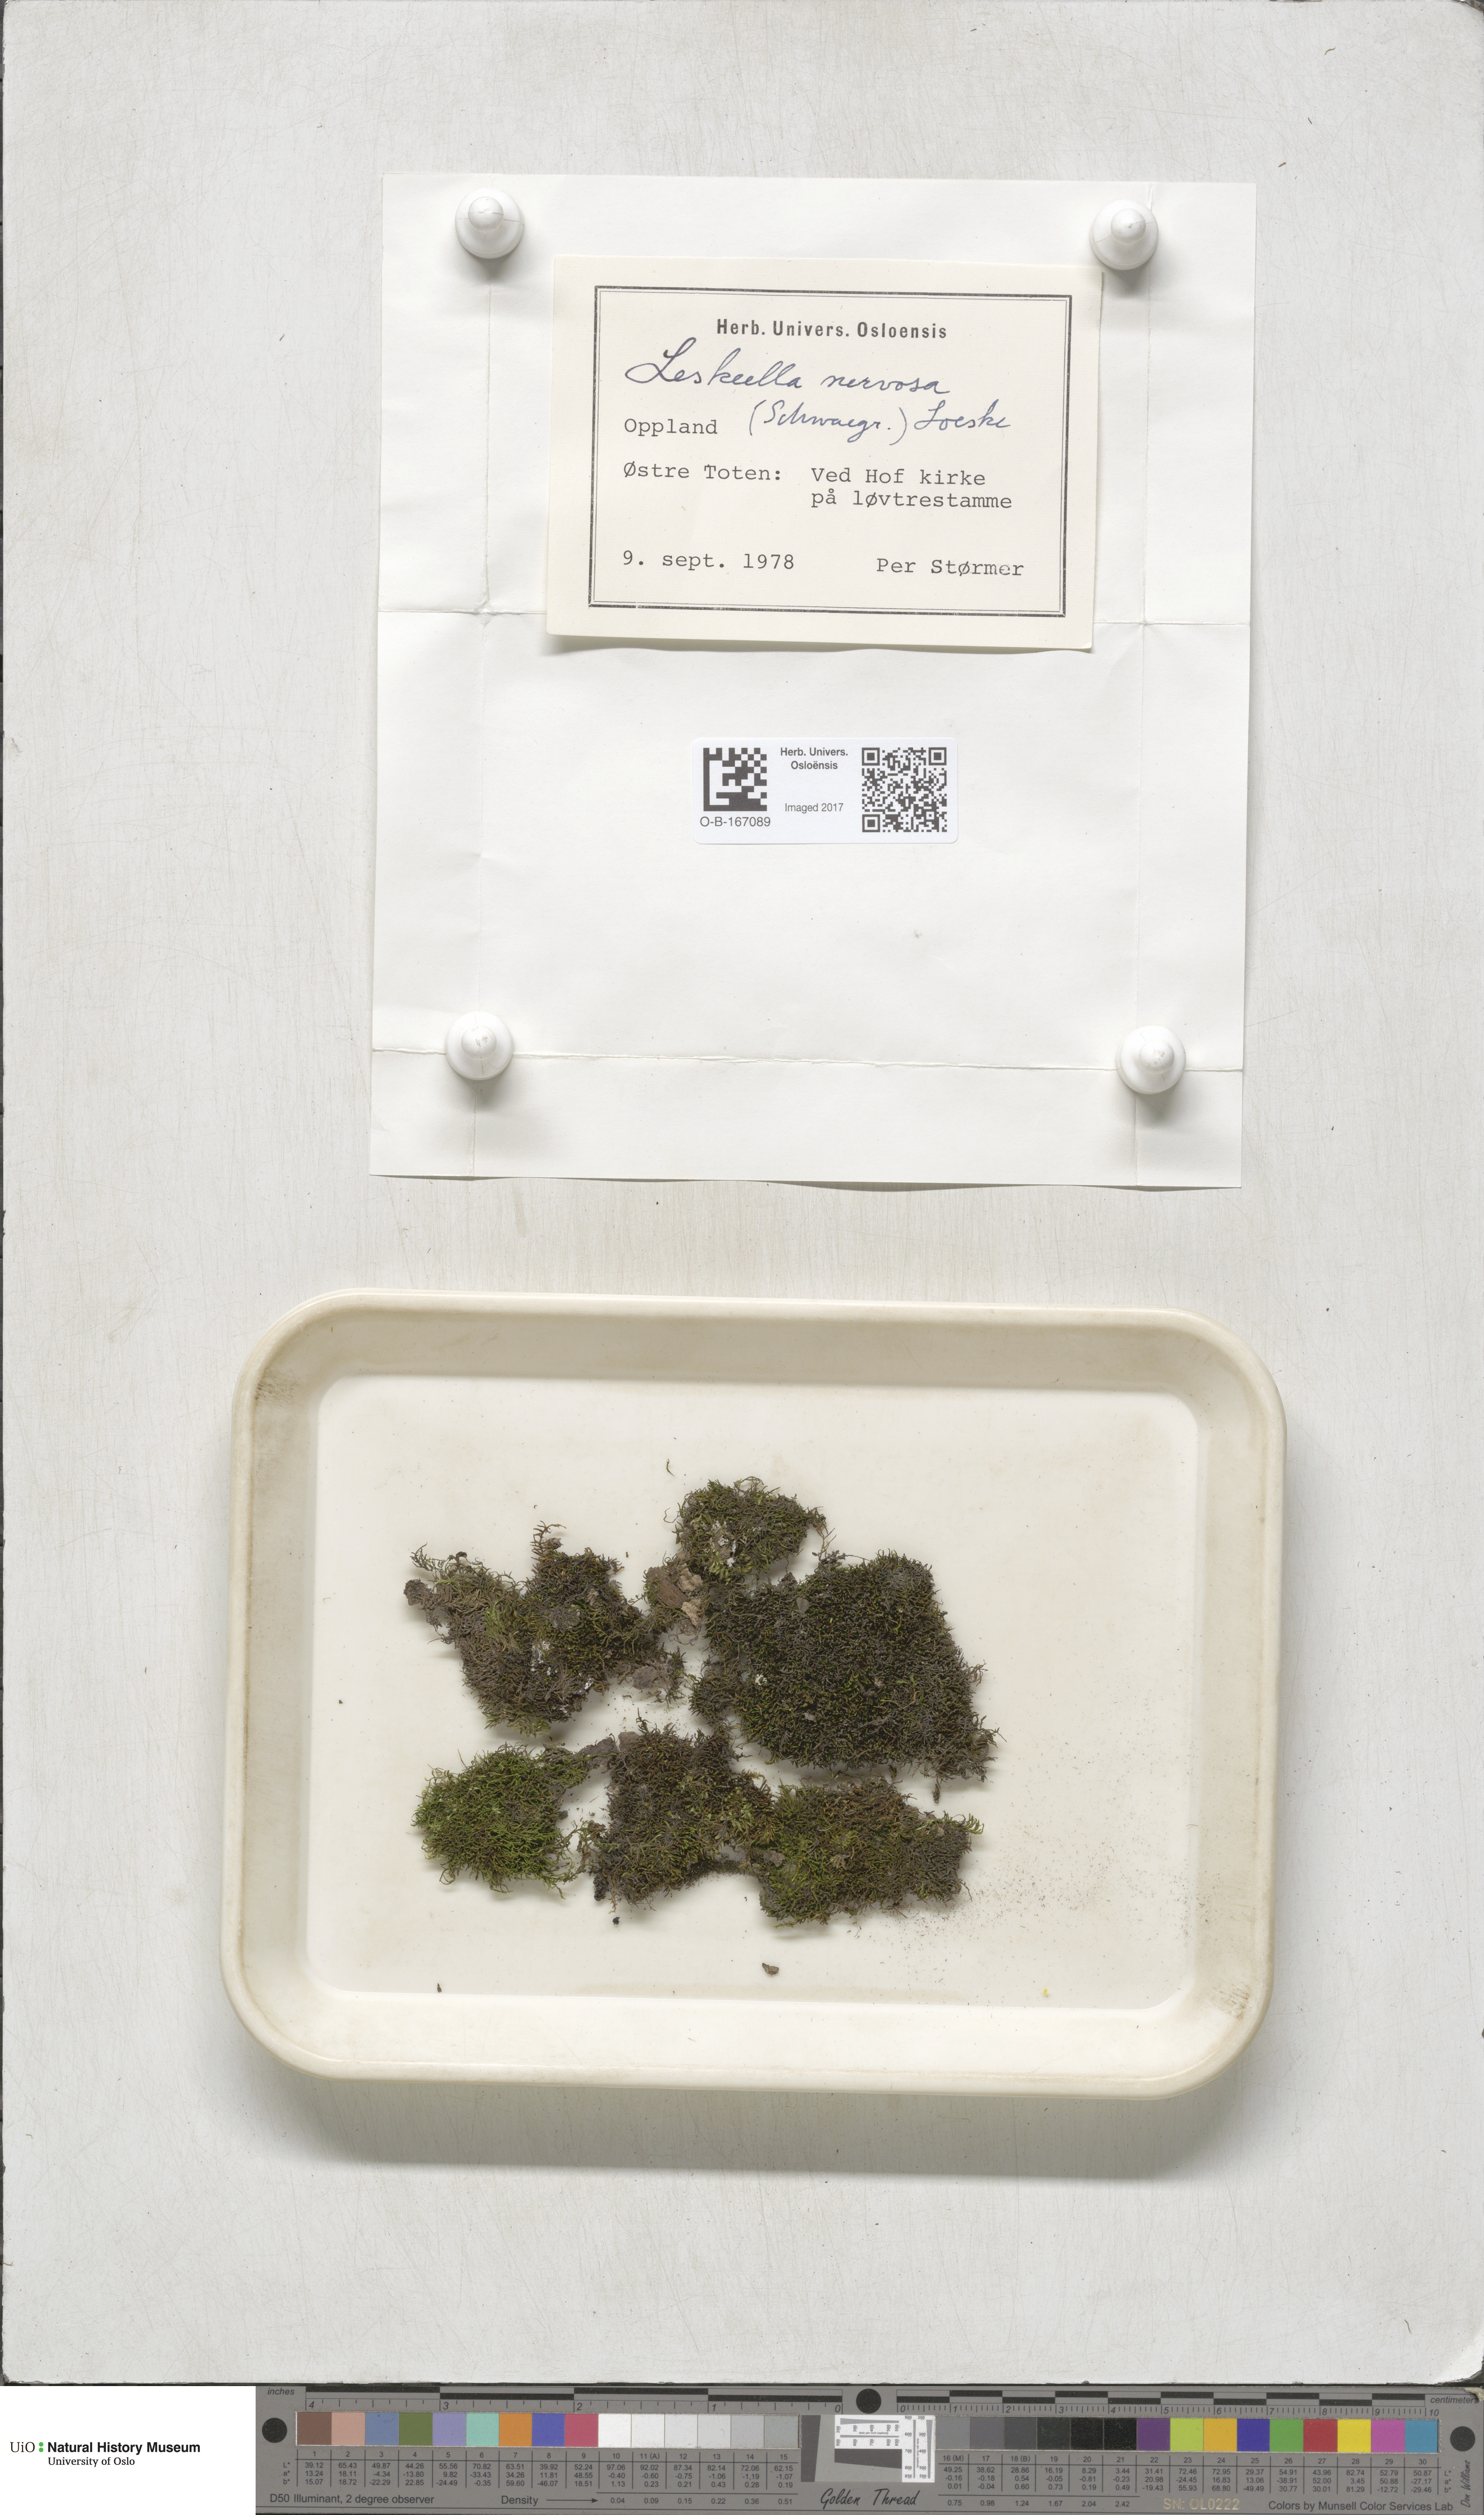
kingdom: Plantae
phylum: Bryophyta
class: Bryopsida
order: Hypnales
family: Pseudoleskeellaceae
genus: Pseudoleskeella
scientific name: Pseudoleskeella nervosa
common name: Nerved leske's moss
